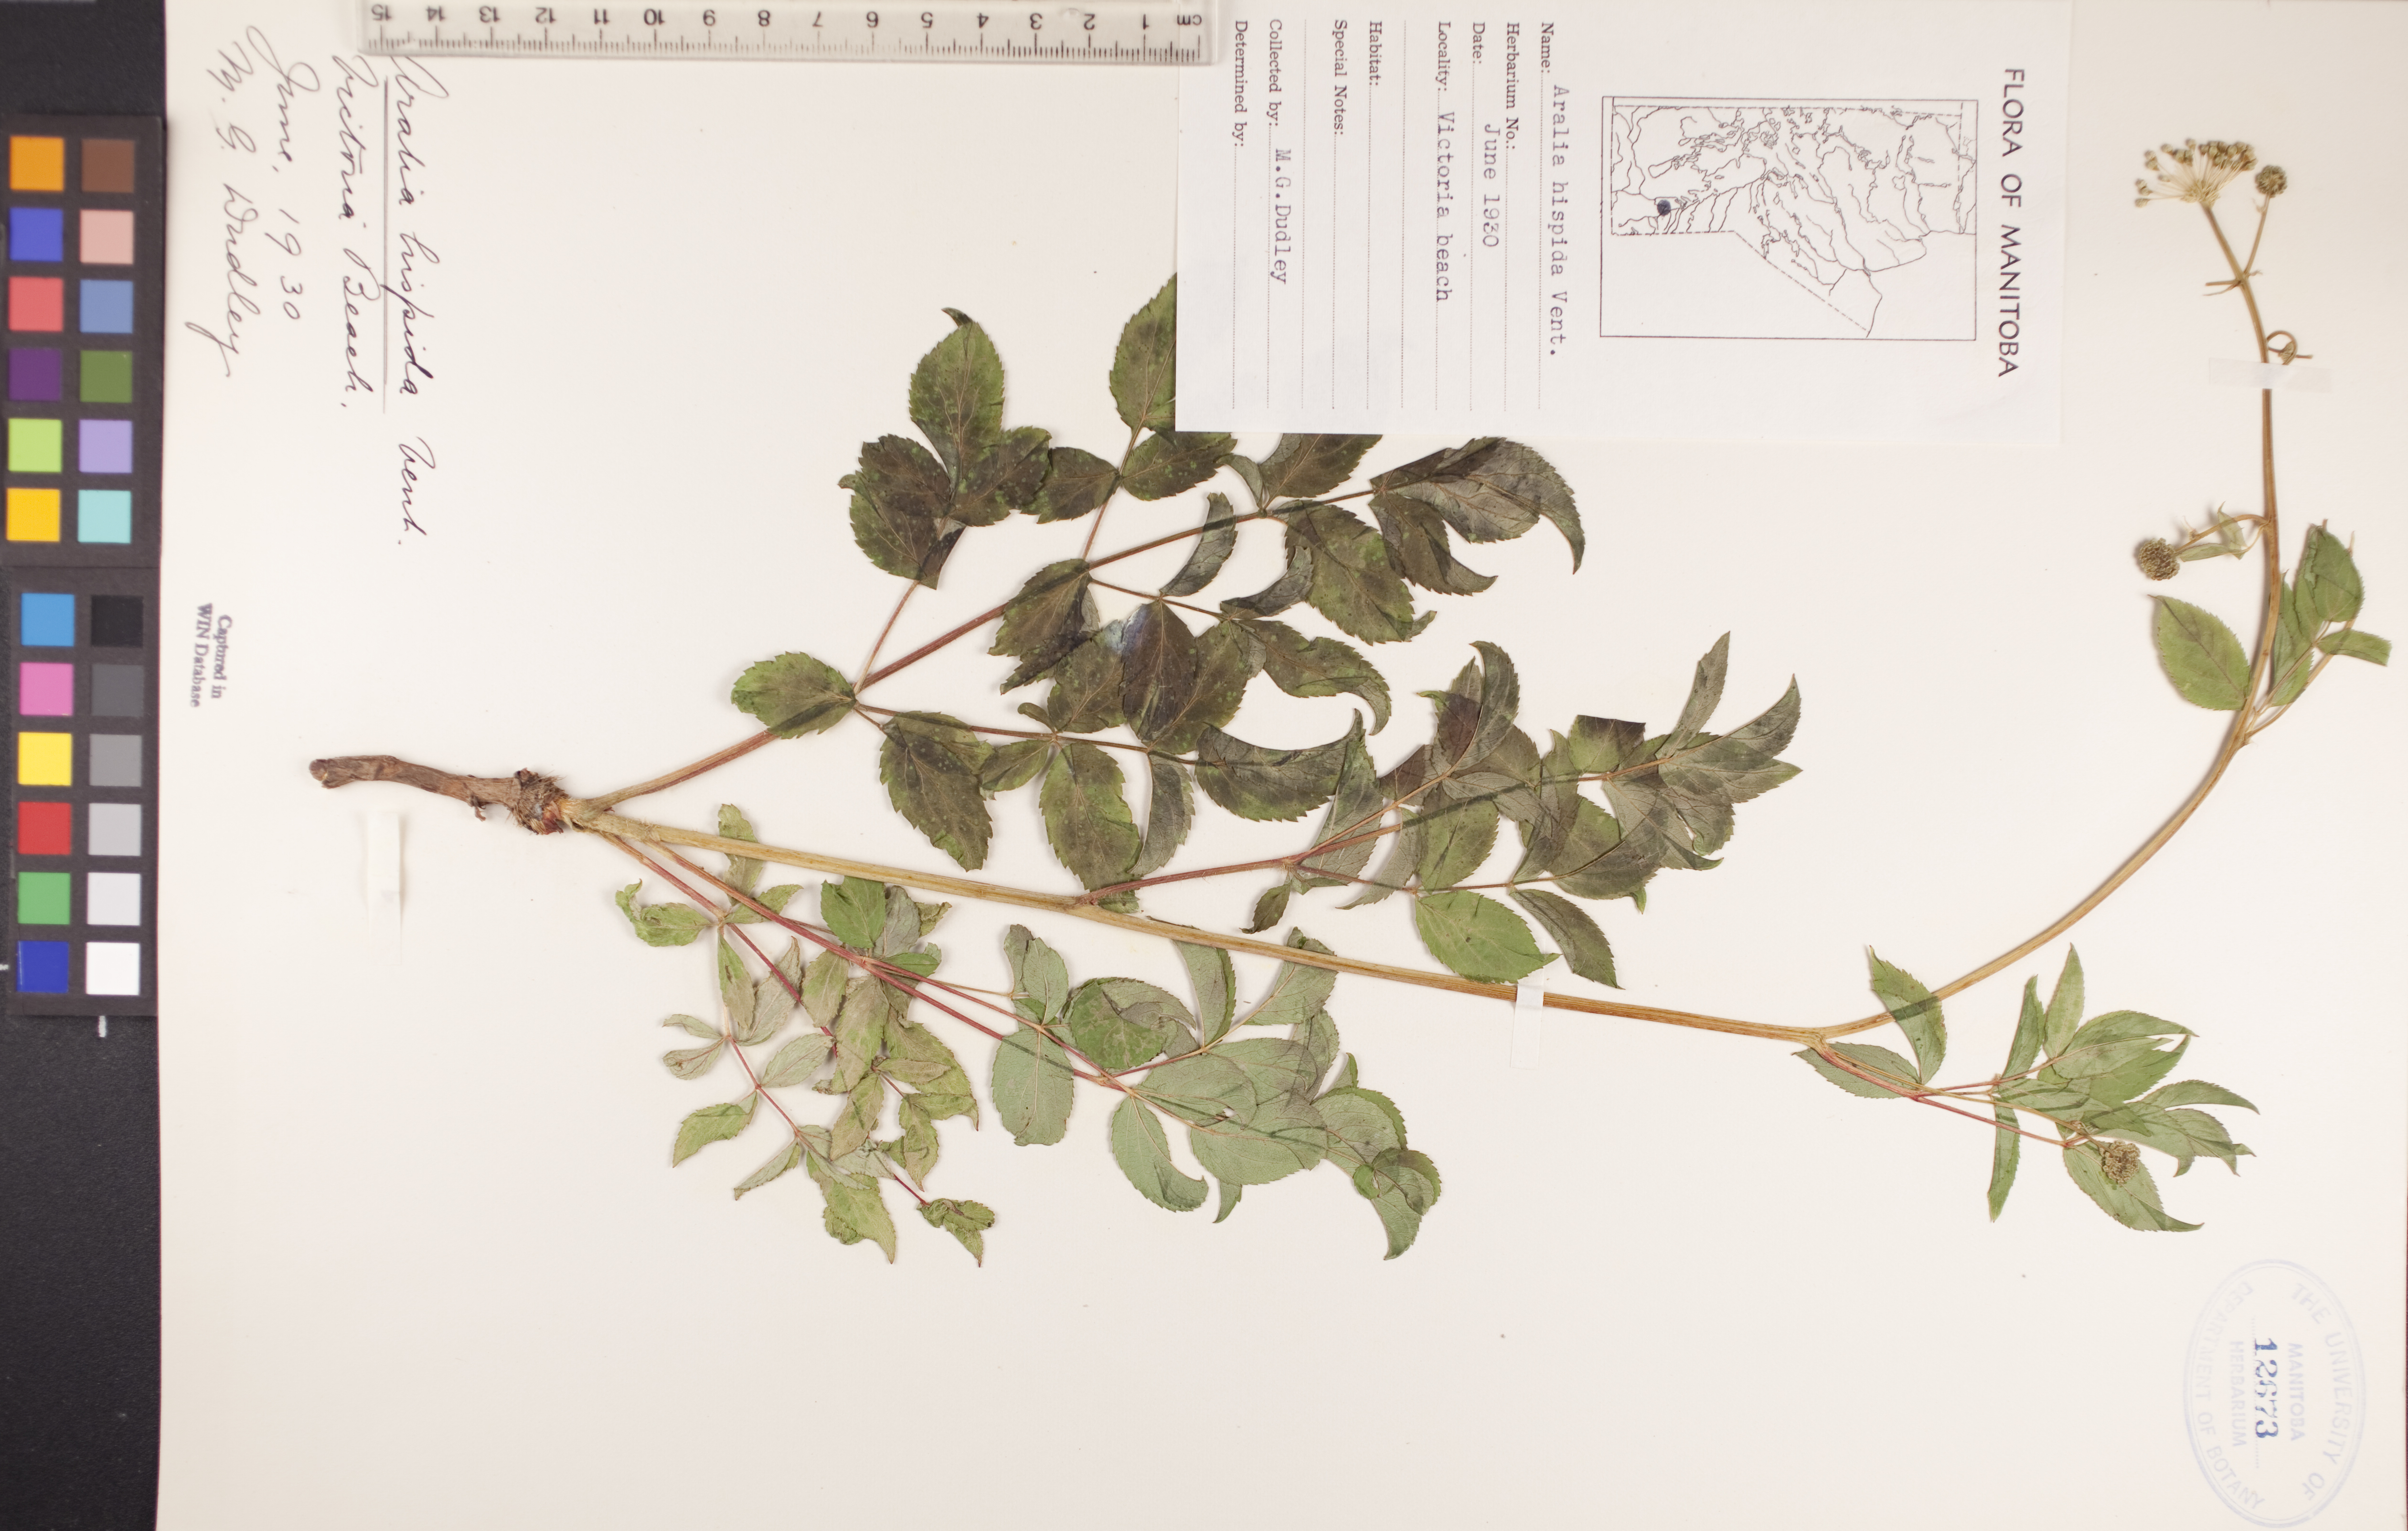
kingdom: Plantae
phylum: Tracheophyta
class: Magnoliopsida
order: Apiales
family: Araliaceae
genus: Aralia
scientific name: Aralia hispida
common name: Bristly sarsaparilla
